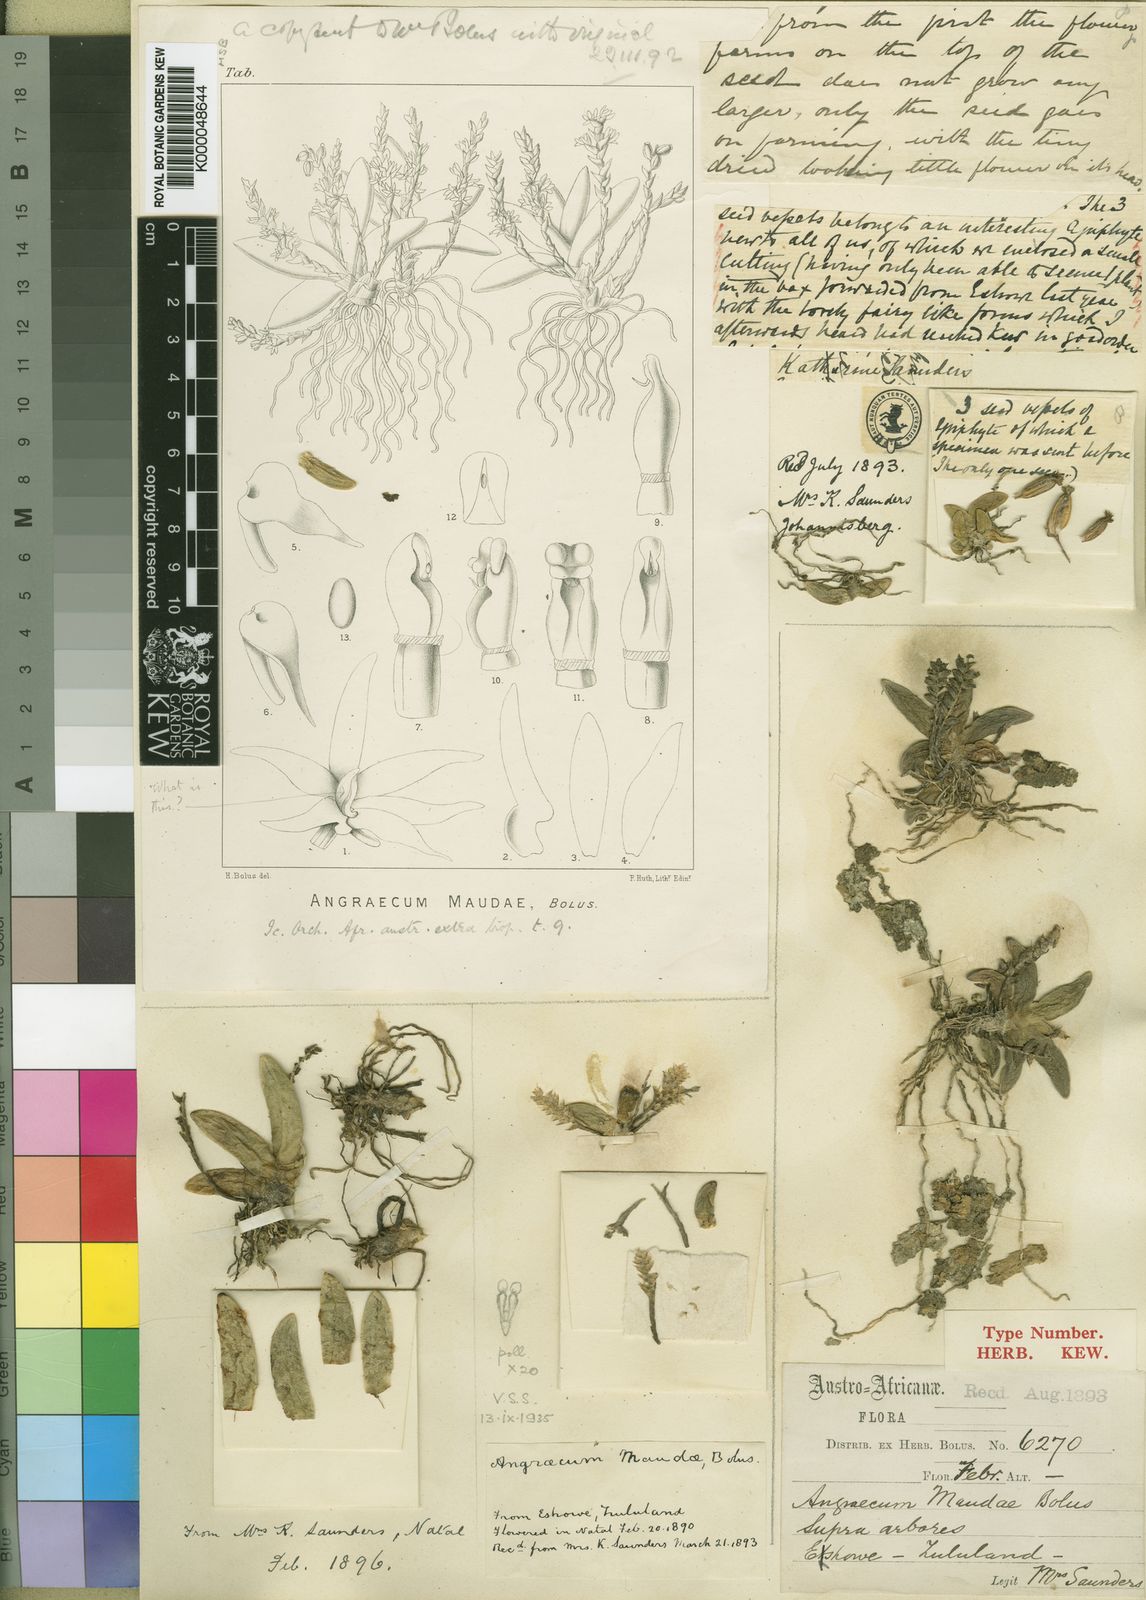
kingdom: Plantae
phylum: Tracheophyta
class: Liliopsida
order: Asparagales
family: Orchidaceae
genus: Bolusiella
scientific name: Bolusiella maudiae
